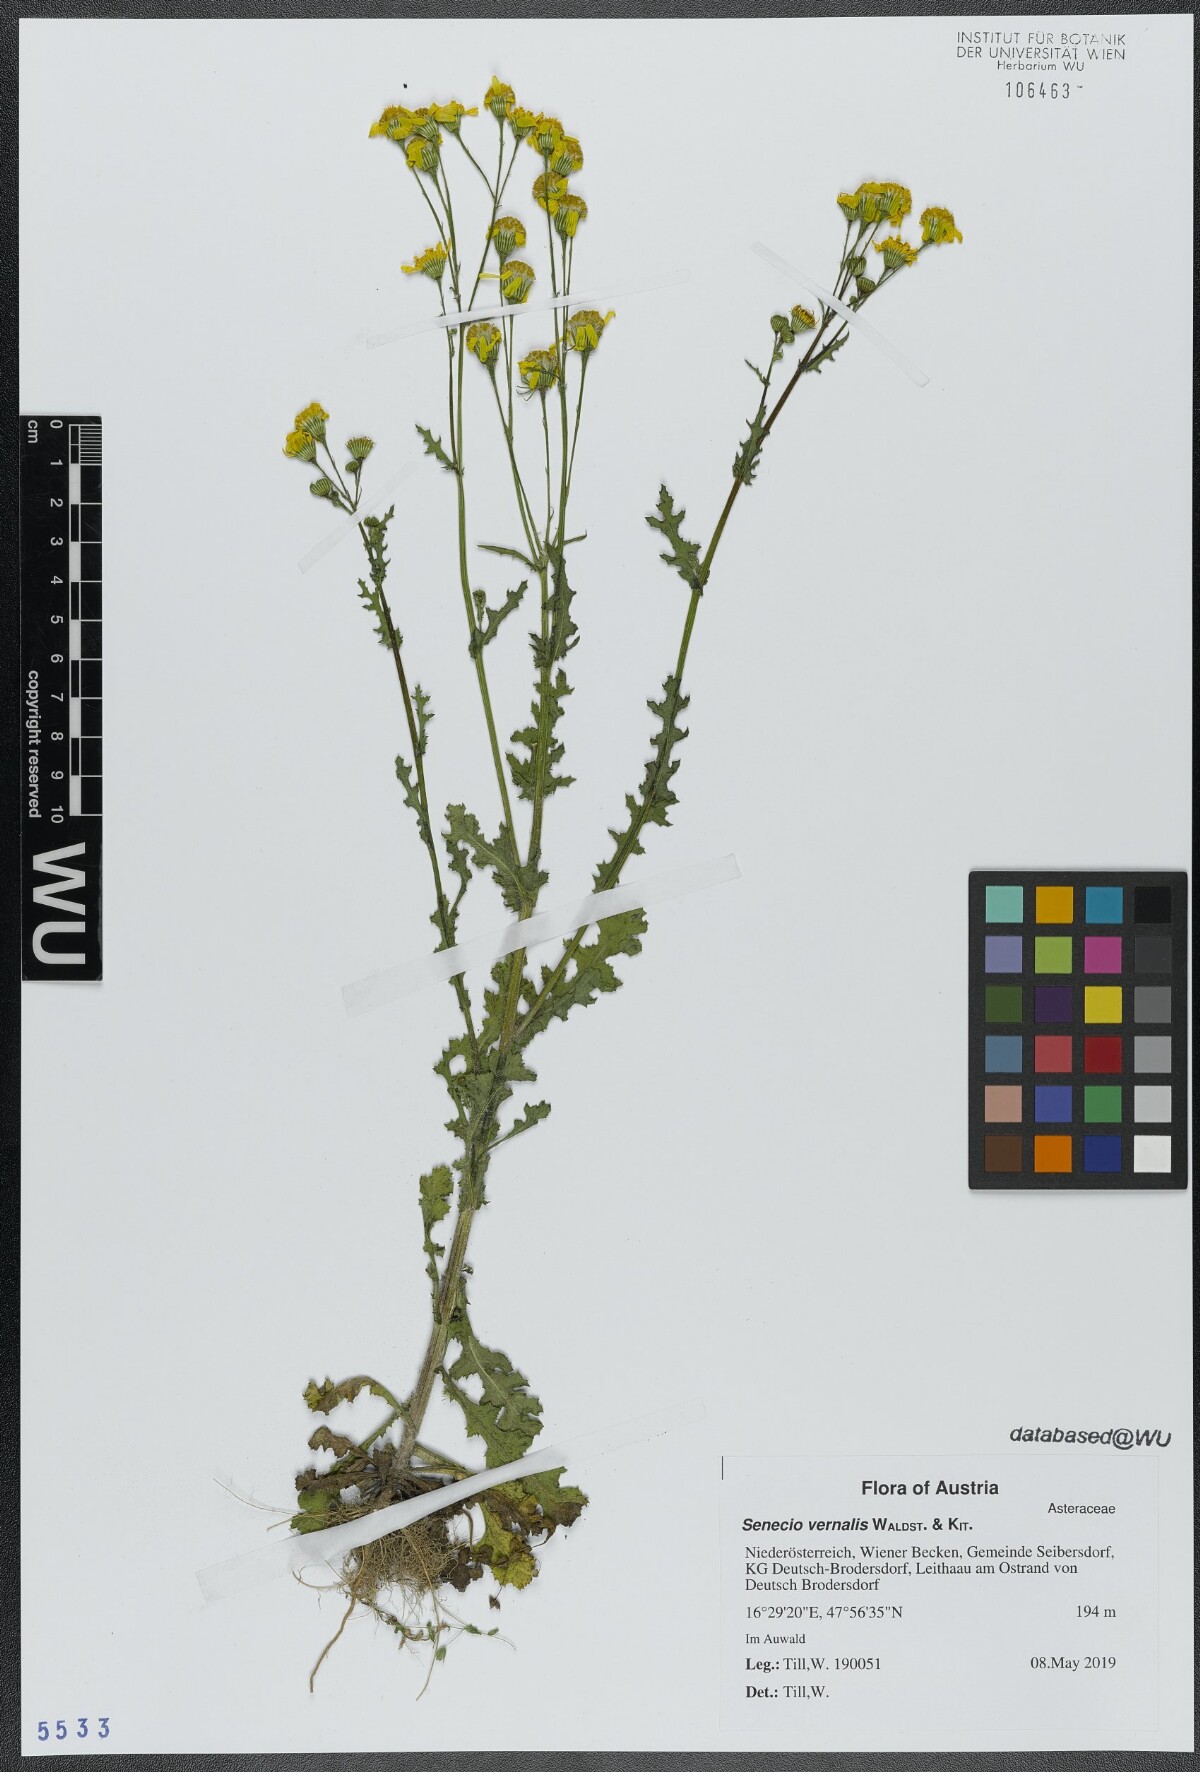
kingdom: Plantae
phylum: Tracheophyta
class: Magnoliopsida
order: Asterales
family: Asteraceae
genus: Senecio
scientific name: Senecio vernalis
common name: Eastern groundsel
